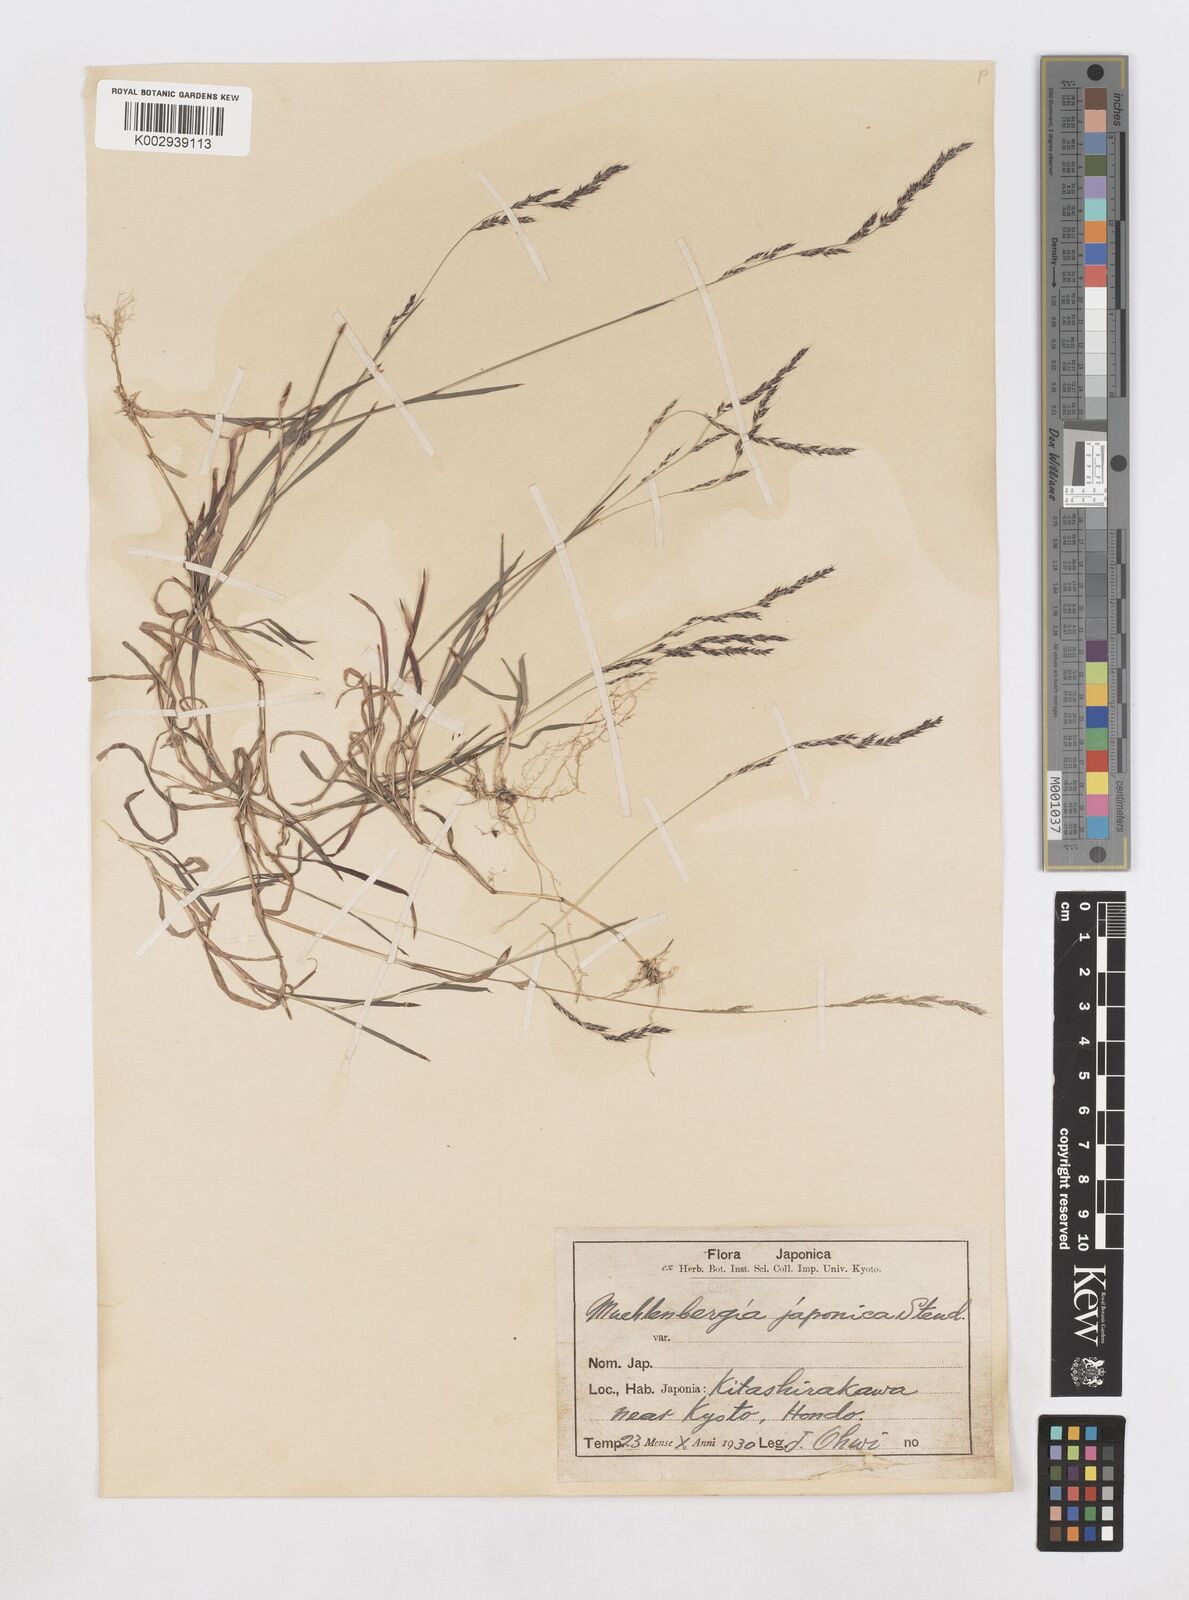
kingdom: Plantae
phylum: Tracheophyta
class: Liliopsida
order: Poales
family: Poaceae
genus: Muhlenbergia
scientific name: Muhlenbergia japonica
